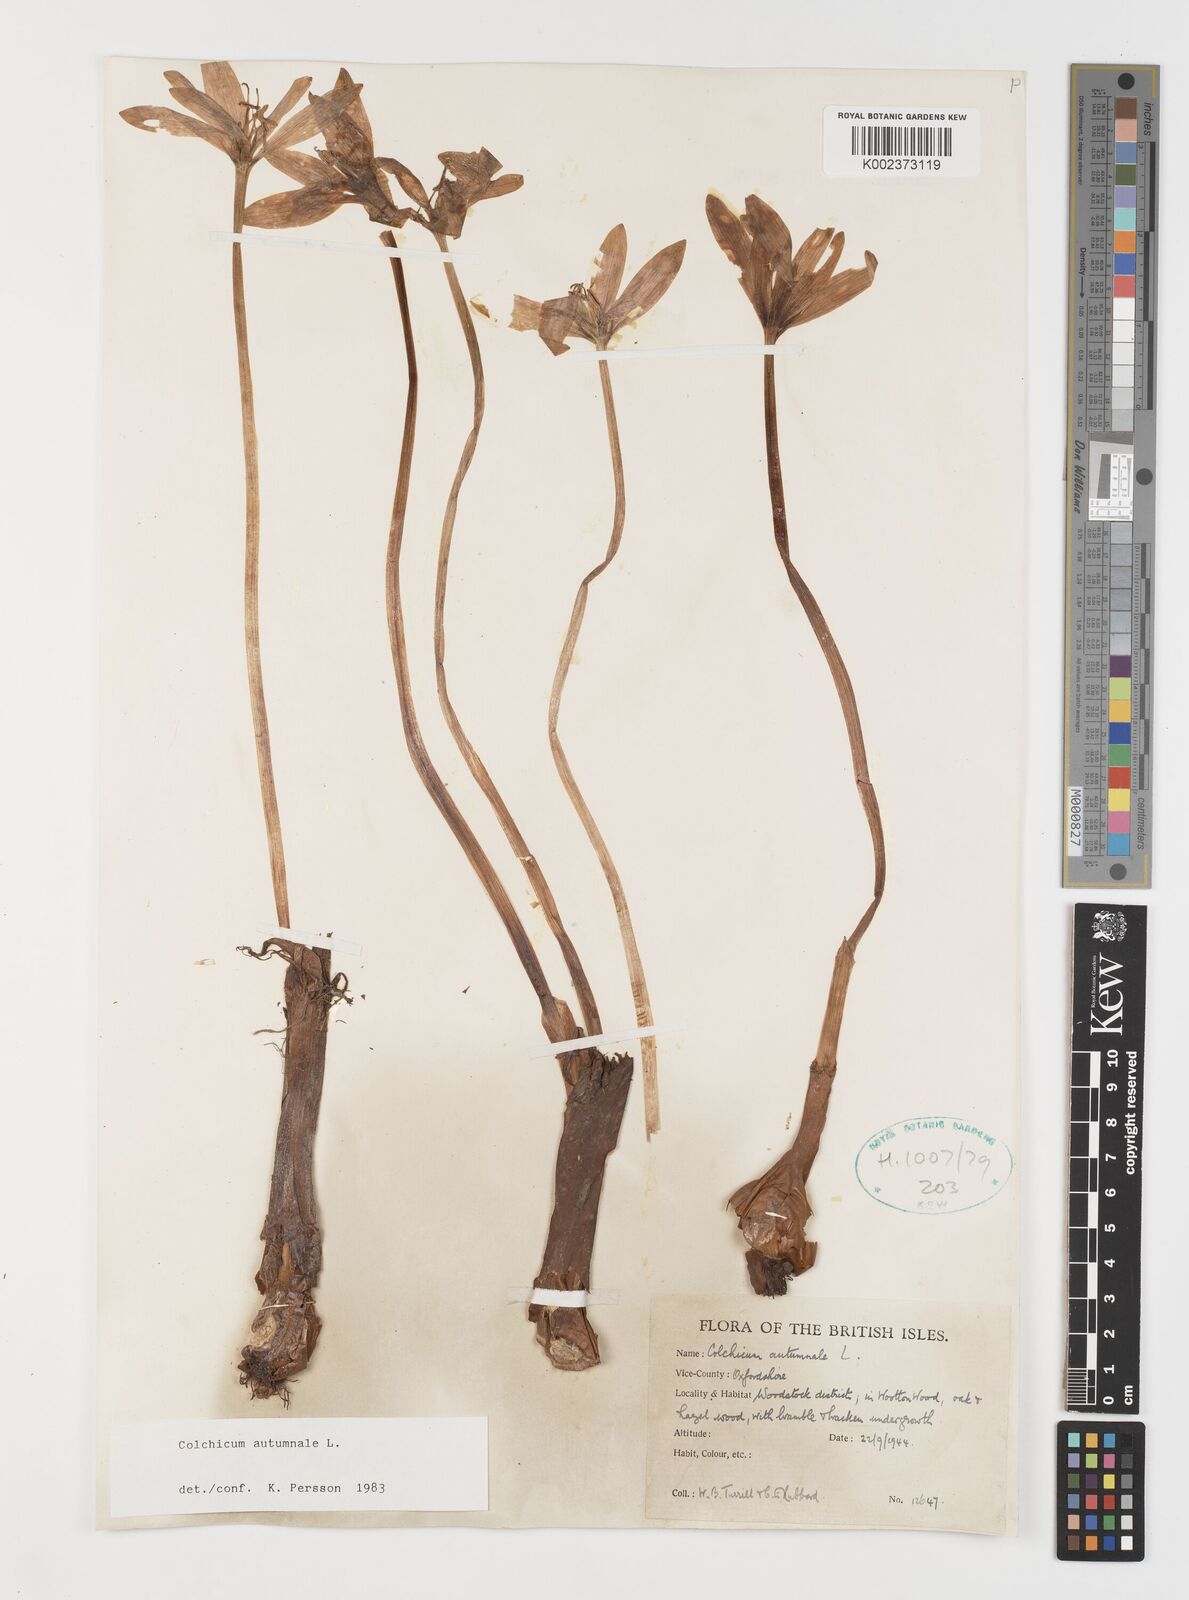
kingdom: Plantae
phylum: Tracheophyta
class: Liliopsida
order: Liliales
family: Colchicaceae
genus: Colchicum
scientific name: Colchicum autumnale
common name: Autumn crocus
